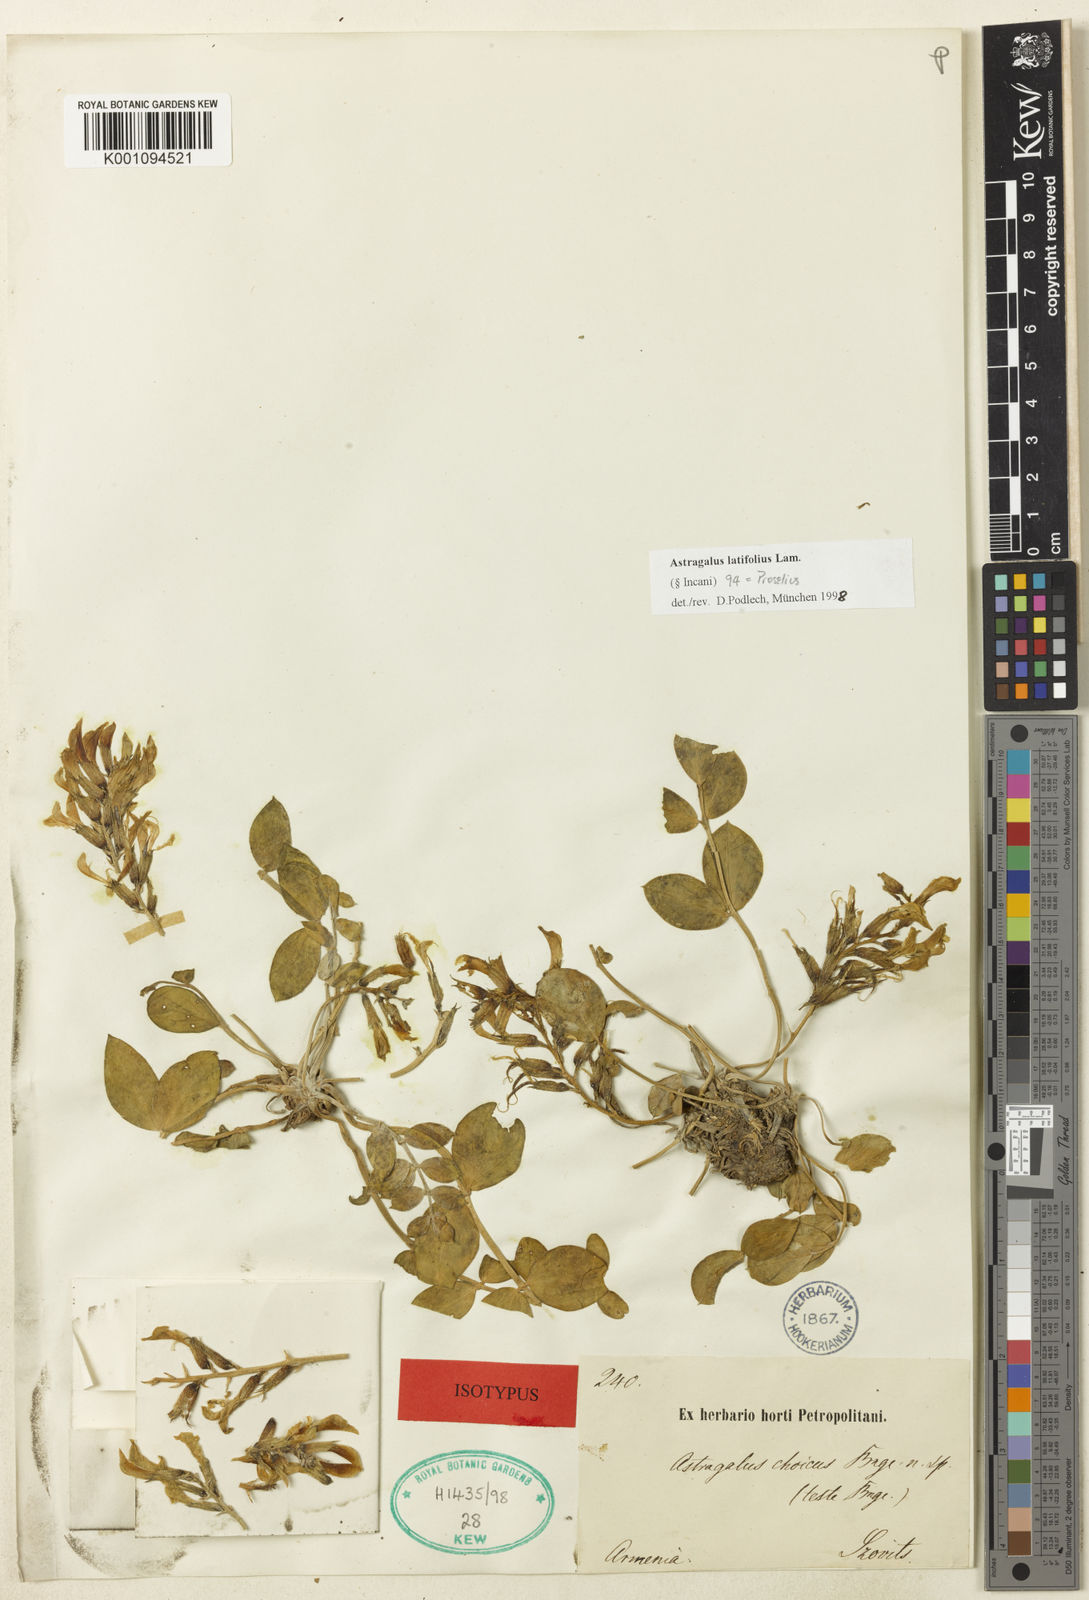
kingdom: Plantae
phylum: Tracheophyta
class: Magnoliopsida
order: Fabales
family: Fabaceae
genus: Astragalus
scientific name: Astragalus
